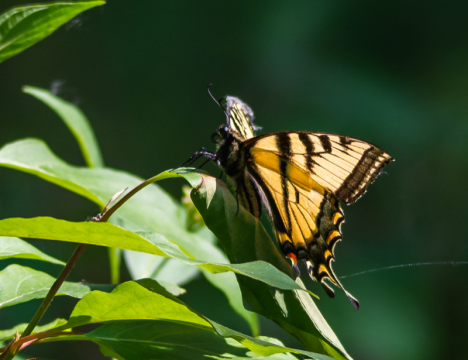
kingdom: Animalia
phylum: Arthropoda
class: Insecta
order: Lepidoptera
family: Papilionidae
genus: Pterourus
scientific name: Pterourus canadensis
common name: Canadian Tiger Swallowtail
